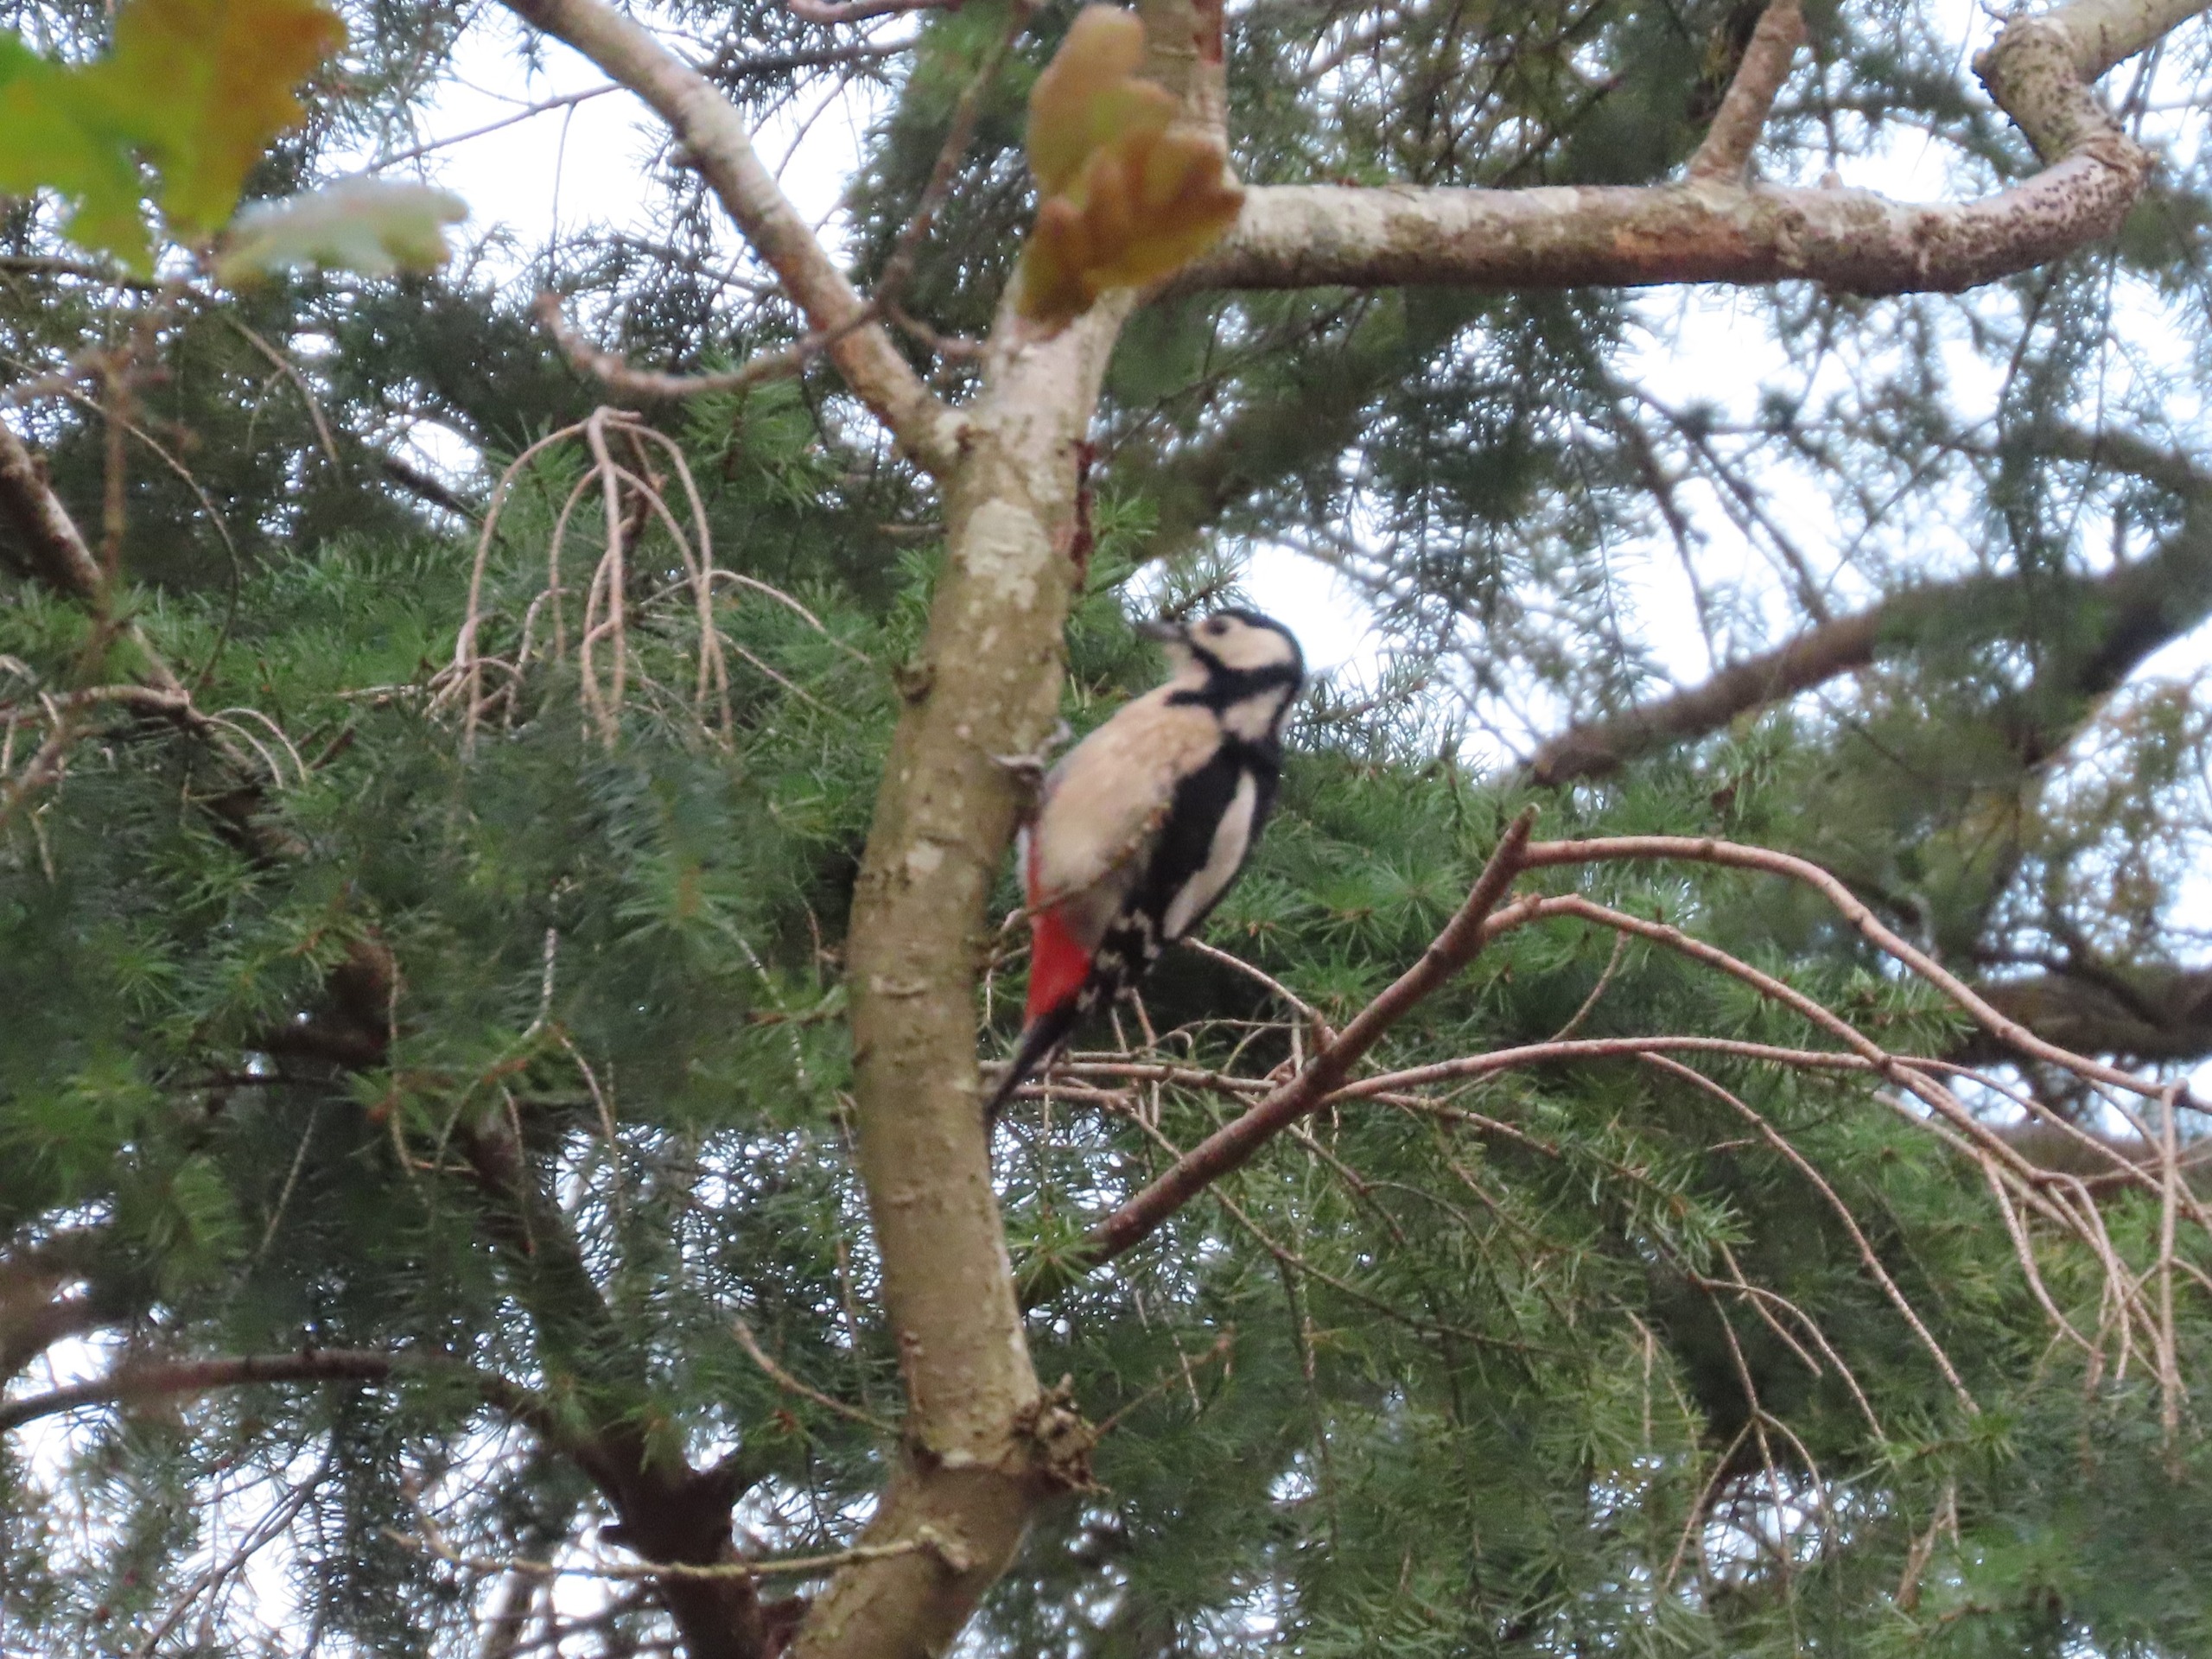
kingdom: Animalia
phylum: Chordata
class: Aves
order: Piciformes
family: Picidae
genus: Dendrocopos
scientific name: Dendrocopos major
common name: Stor flagspætte
